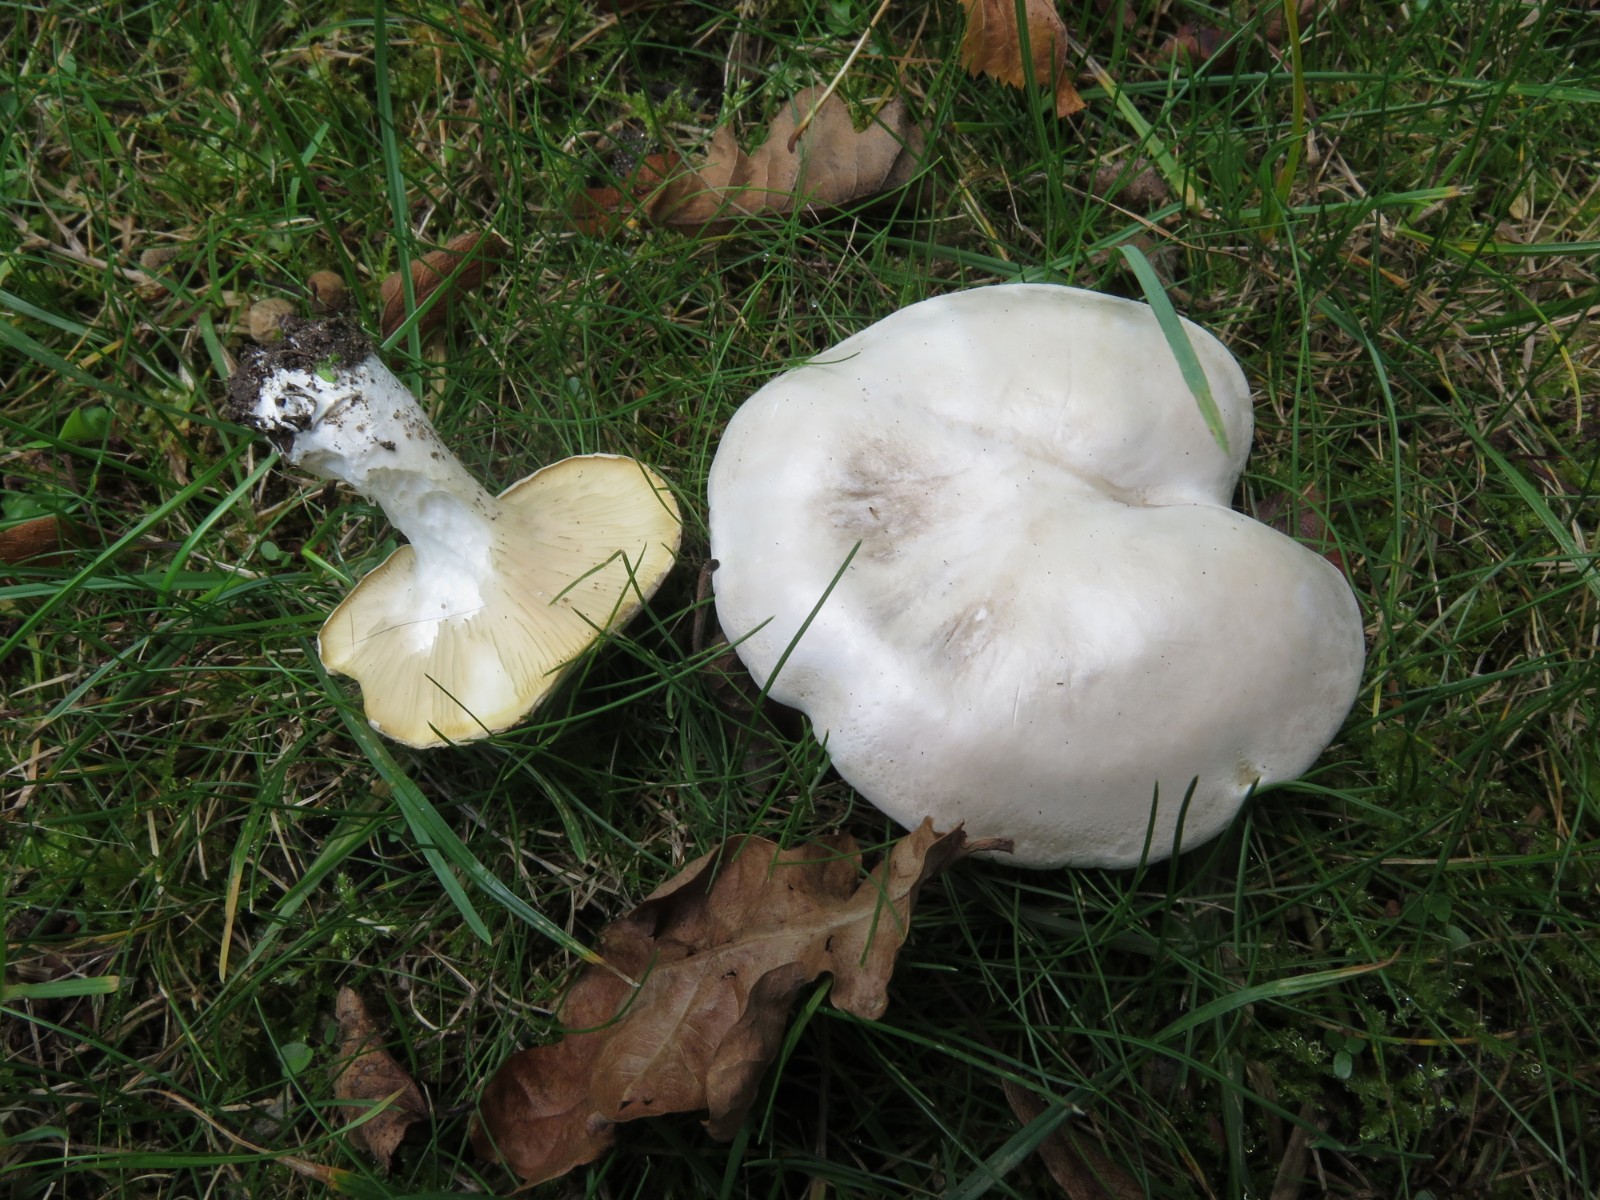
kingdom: Fungi
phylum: Basidiomycota
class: Agaricomycetes
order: Agaricales
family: Entolomataceae
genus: Clitopilus
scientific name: Clitopilus prunulus
